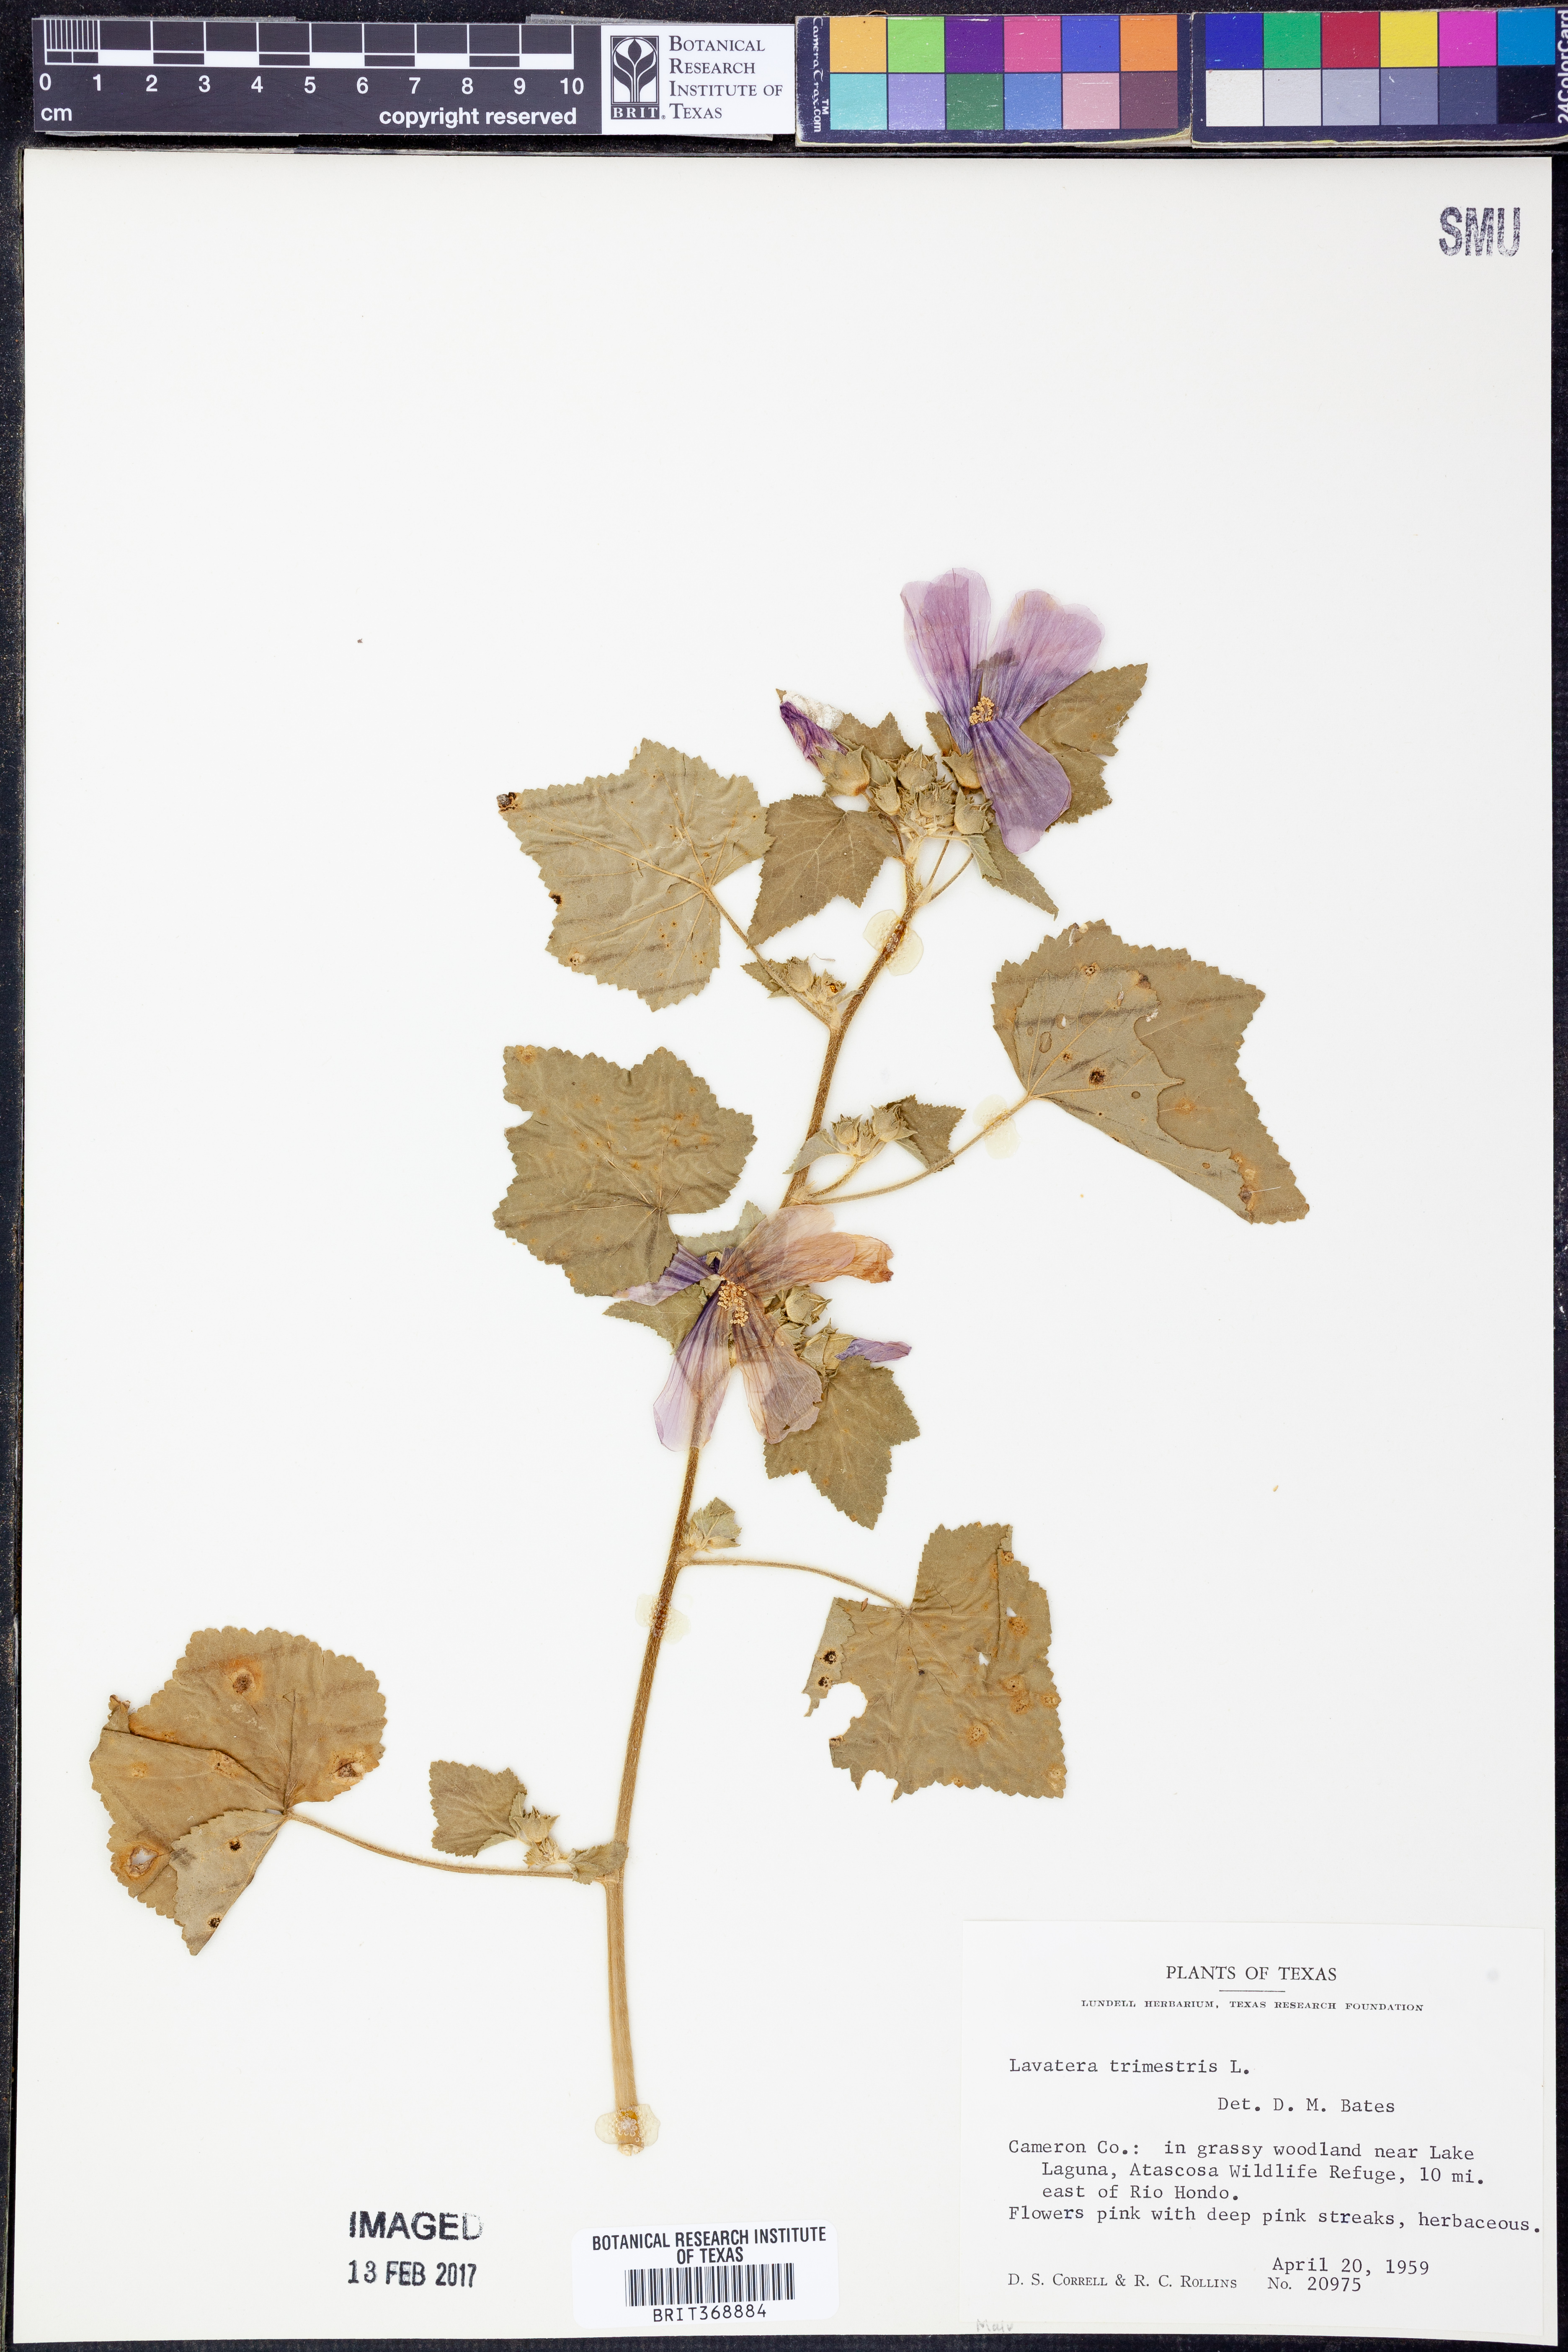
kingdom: Plantae
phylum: Tracheophyta
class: Magnoliopsida
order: Malvales
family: Malvaceae
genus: Malva
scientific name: Malva trimestris
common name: Royal mallow
